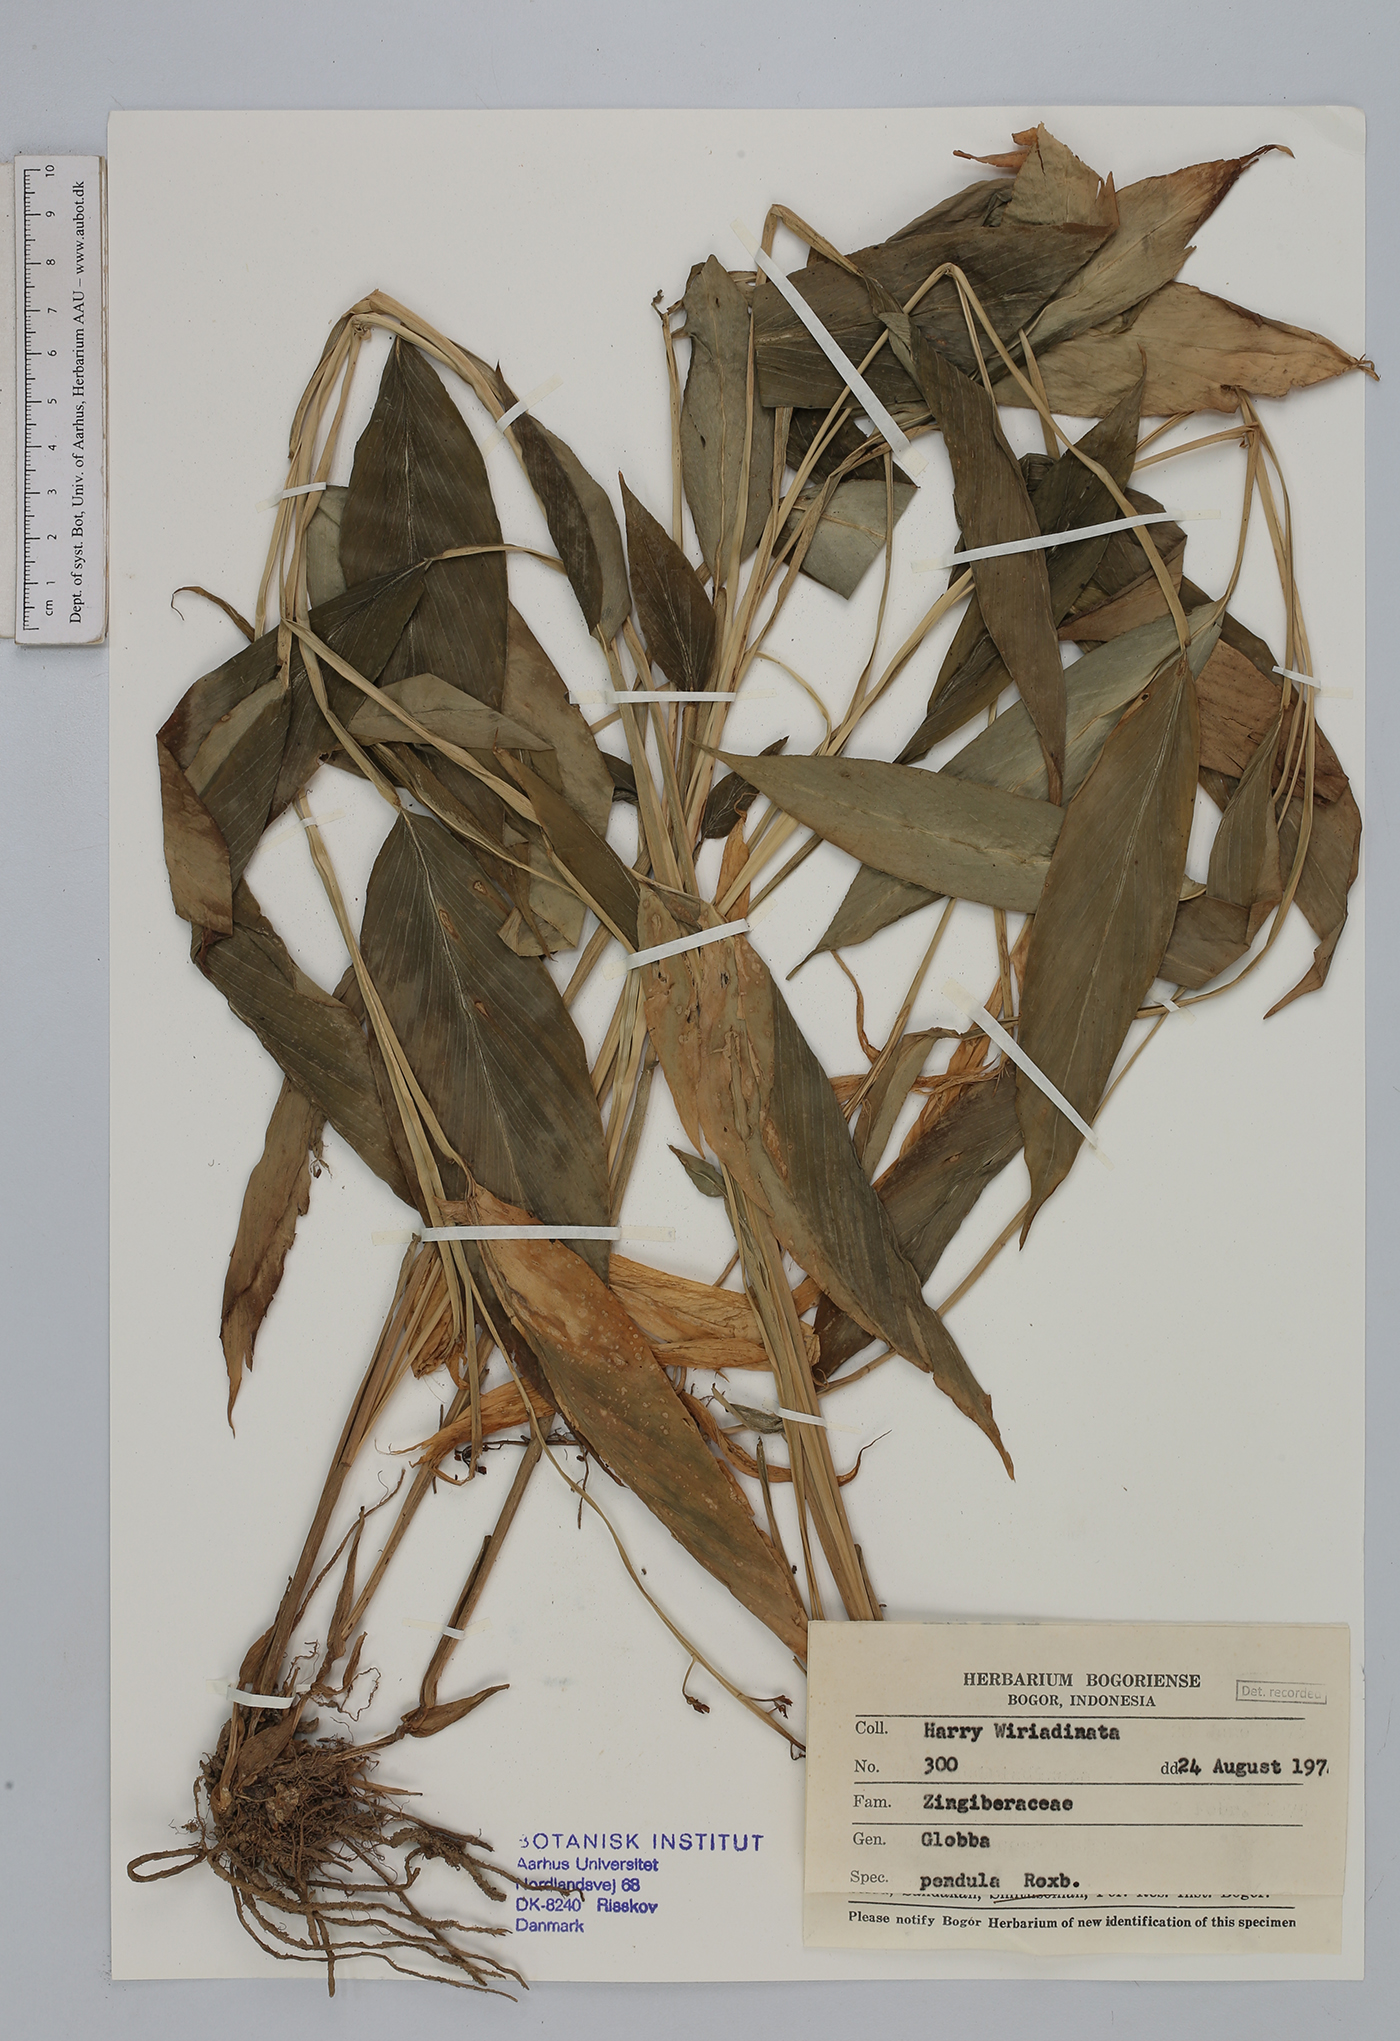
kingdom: Plantae
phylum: Tracheophyta
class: Liliopsida
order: Zingiberales
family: Zingiberaceae
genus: Globba
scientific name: Globba pendula
